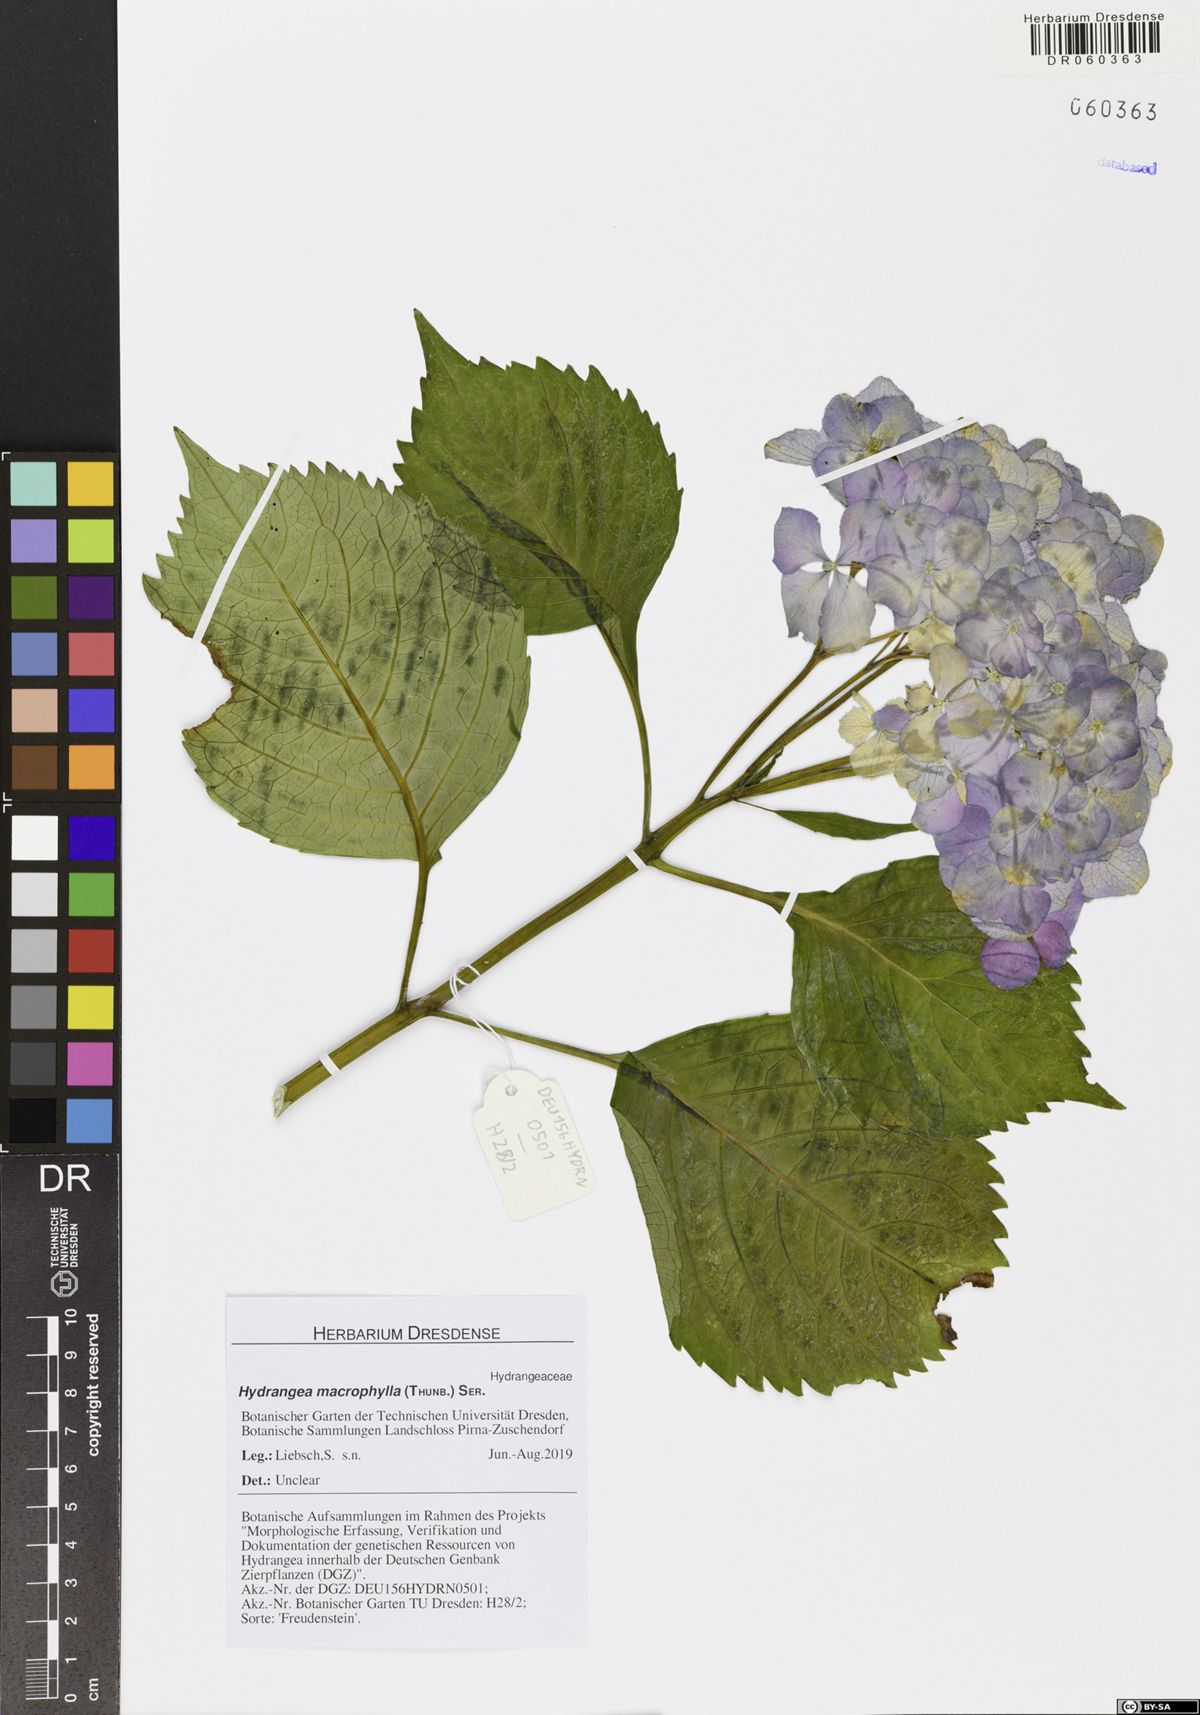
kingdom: Plantae
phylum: Tracheophyta
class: Magnoliopsida
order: Cornales
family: Hydrangeaceae
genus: Hydrangea
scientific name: Hydrangea macrophylla
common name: Hydrangea
